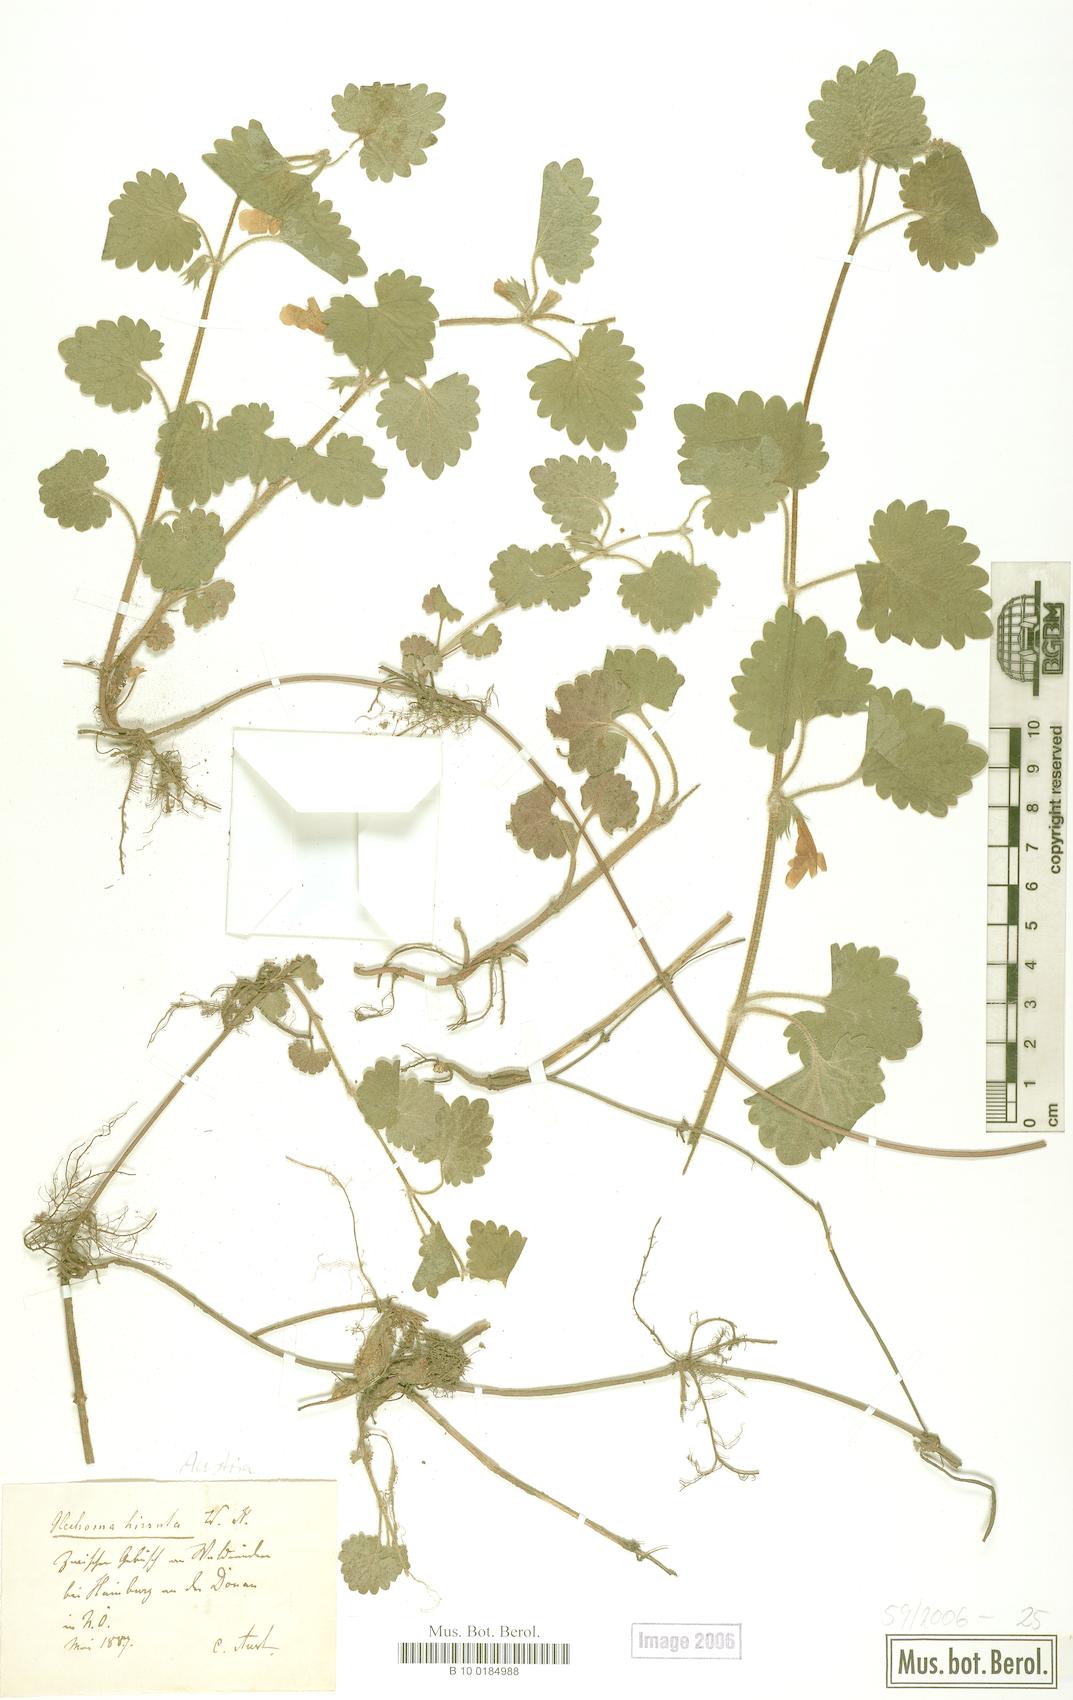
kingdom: Plantae
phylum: Tracheophyta
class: Magnoliopsida
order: Lamiales
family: Lamiaceae
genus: Glechoma
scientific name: Glechoma hirsuta
